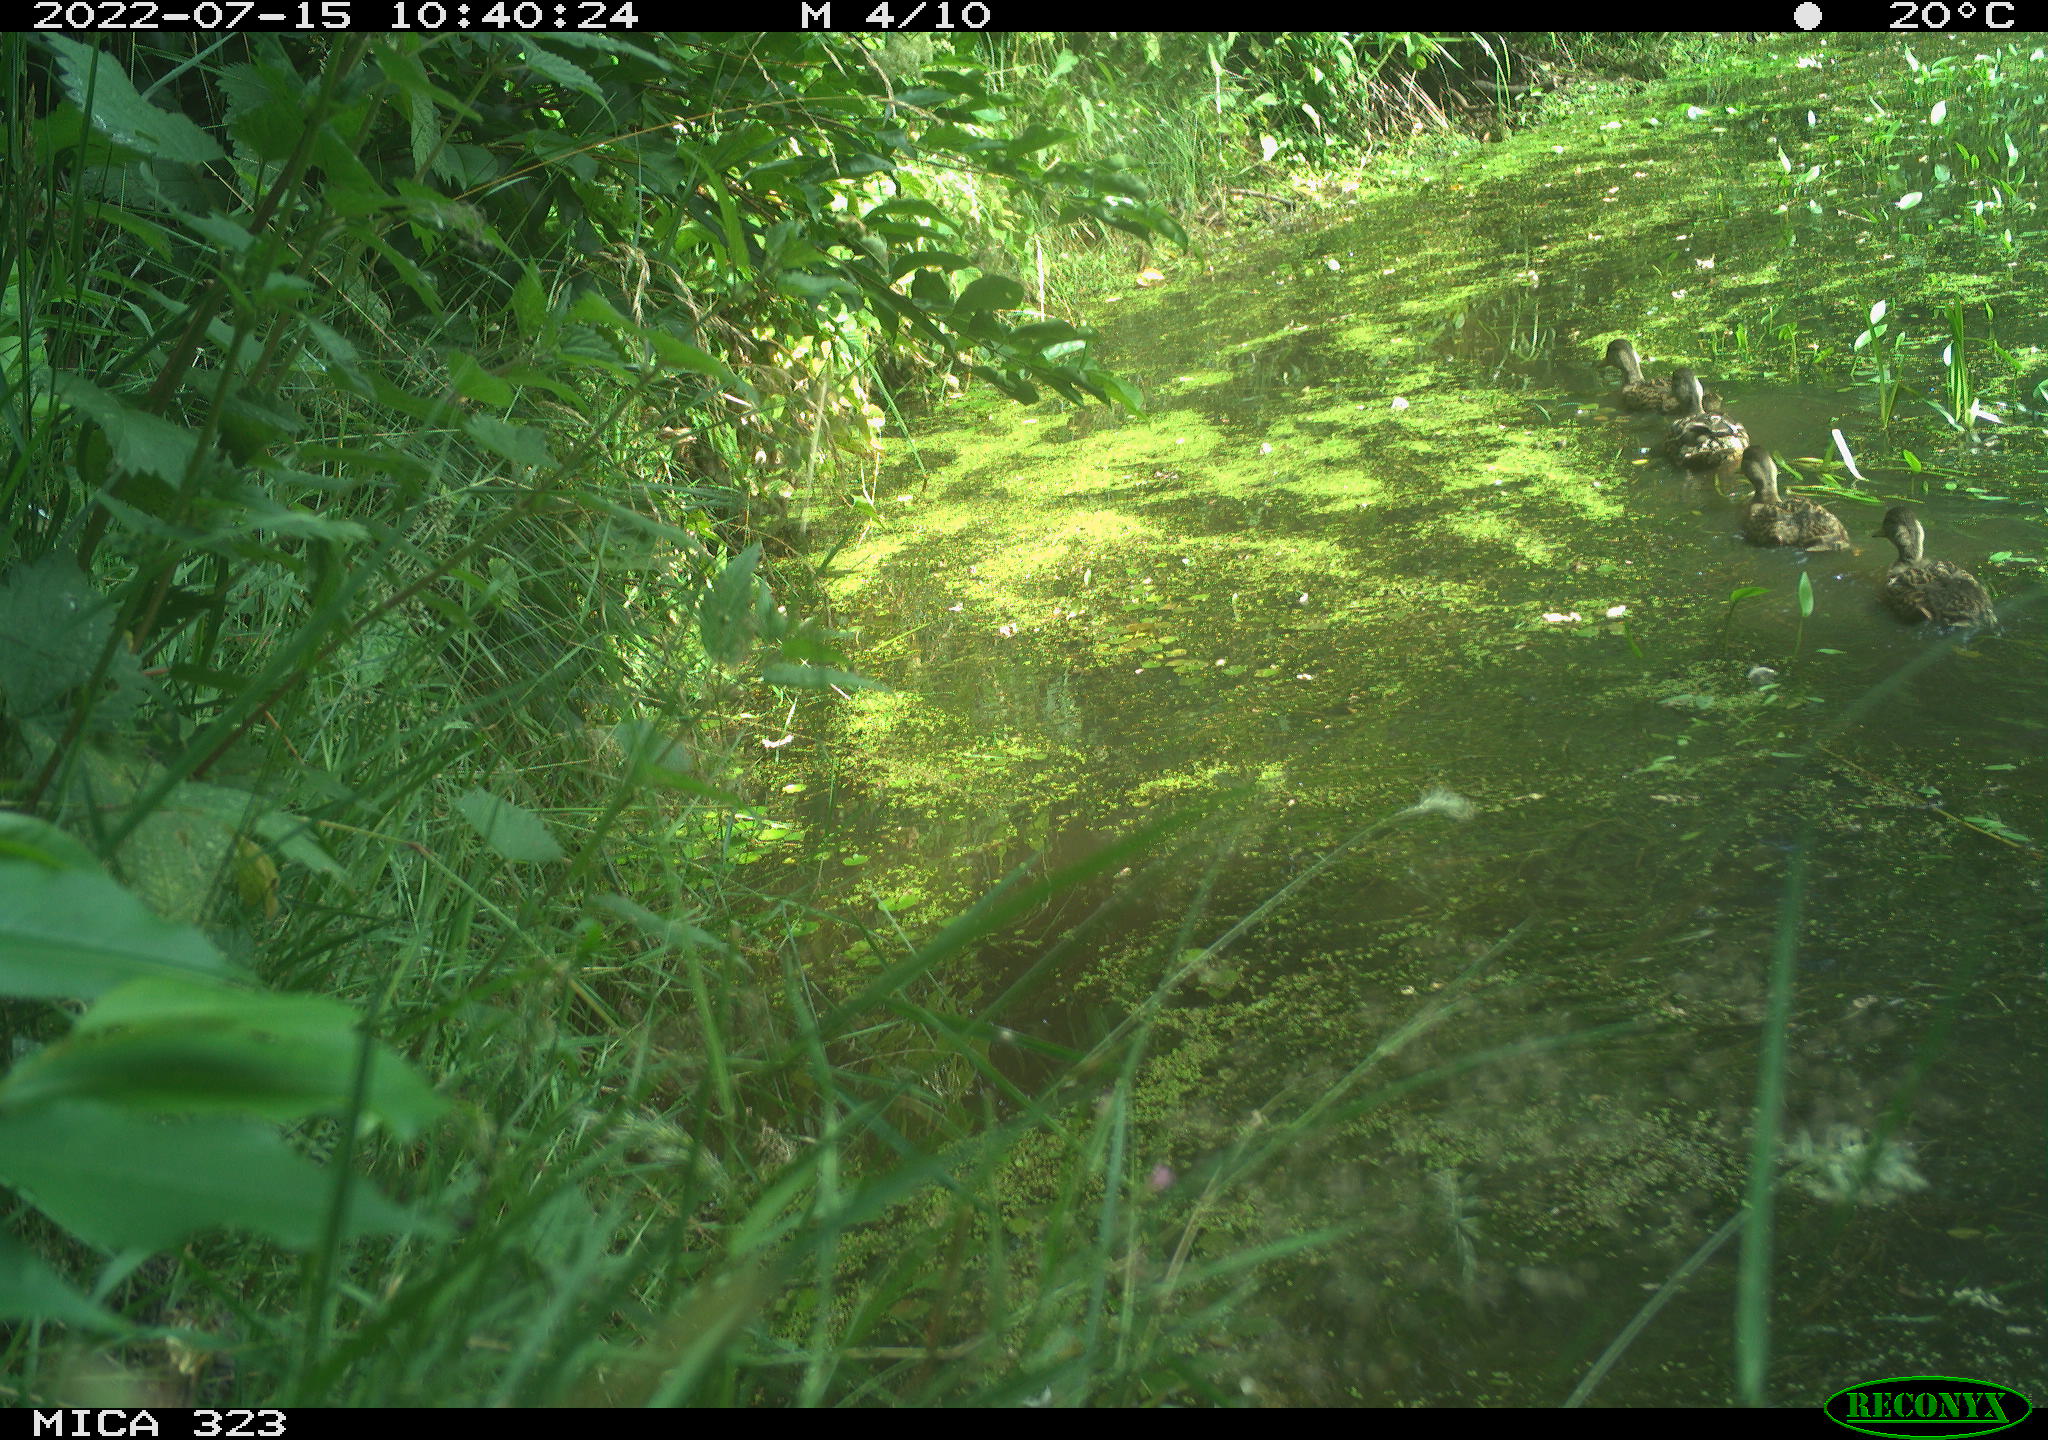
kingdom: Animalia
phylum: Chordata
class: Aves
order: Anseriformes
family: Anatidae
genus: Anas
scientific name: Anas platyrhynchos
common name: Mallard
